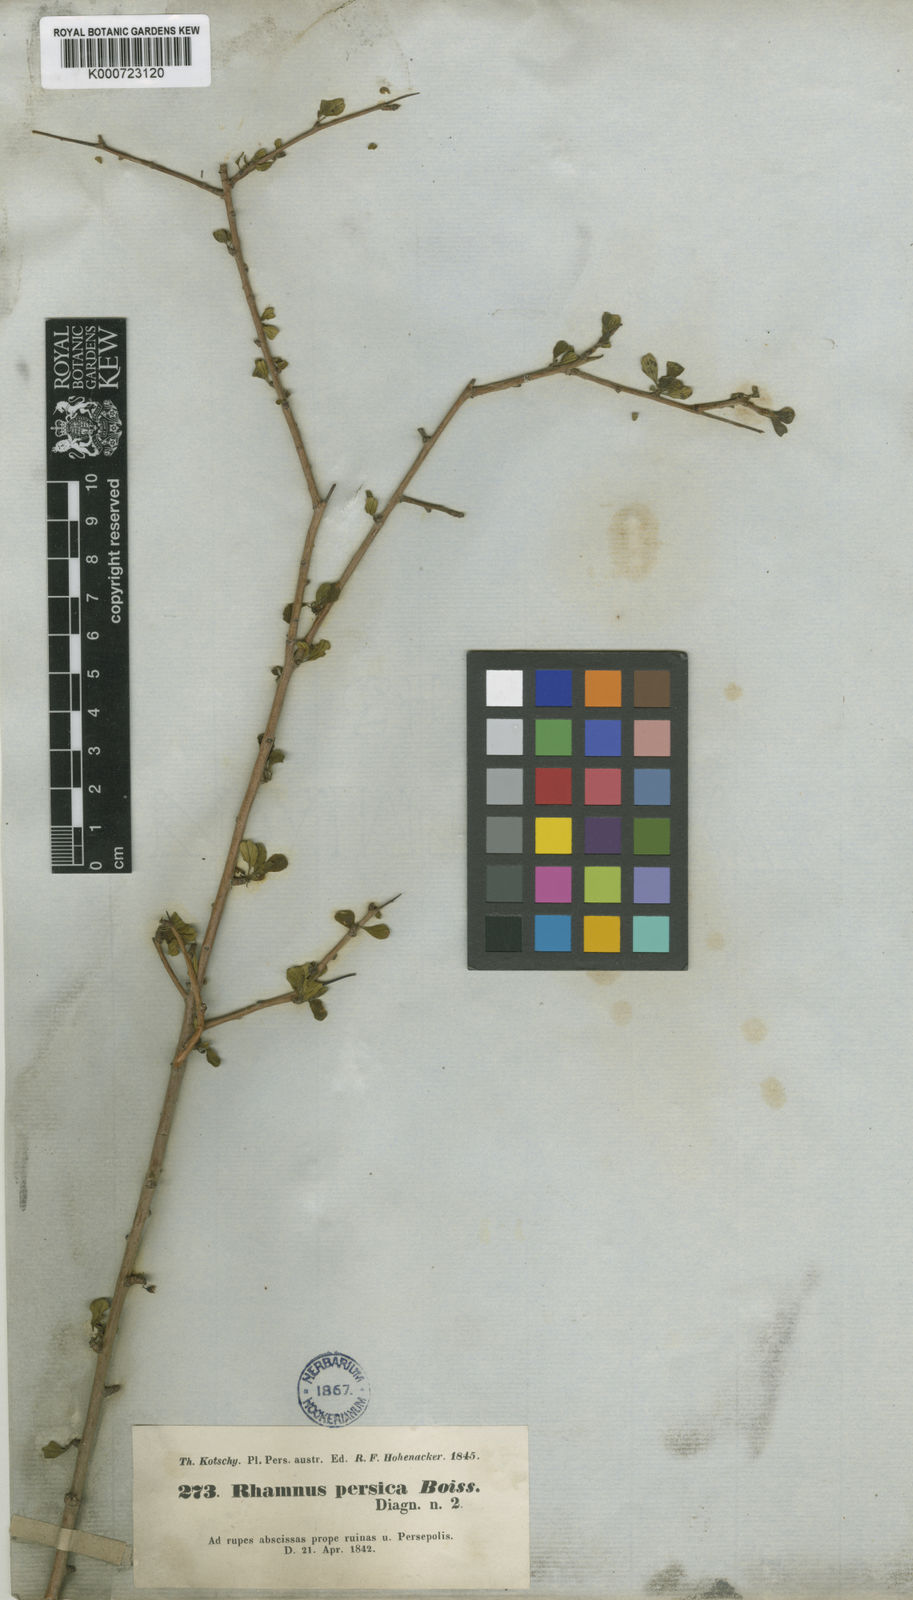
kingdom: Plantae
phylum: Tracheophyta
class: Magnoliopsida
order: Rosales
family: Rhamnaceae
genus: Rhamnus
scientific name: Rhamnus persica
